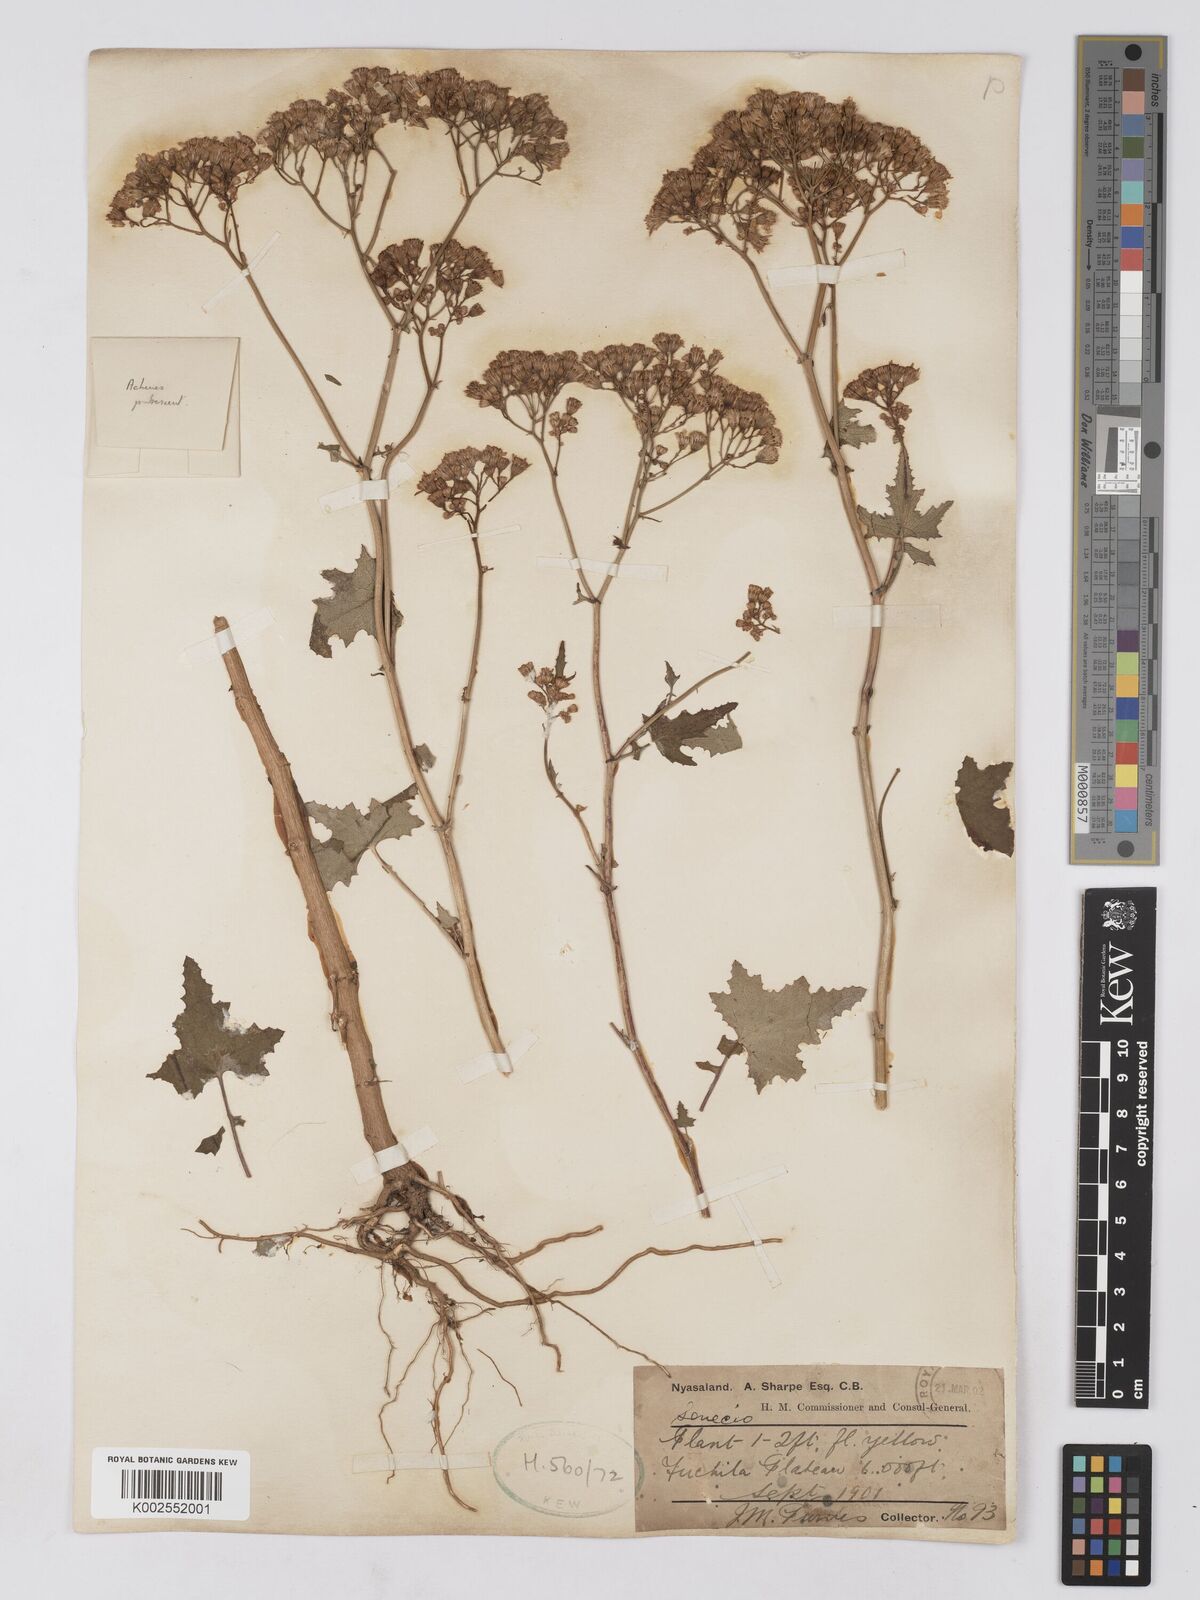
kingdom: Plantae
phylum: Tracheophyta
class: Magnoliopsida
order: Asterales
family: Asteraceae
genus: Cineraria
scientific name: Cineraria deltoidea
